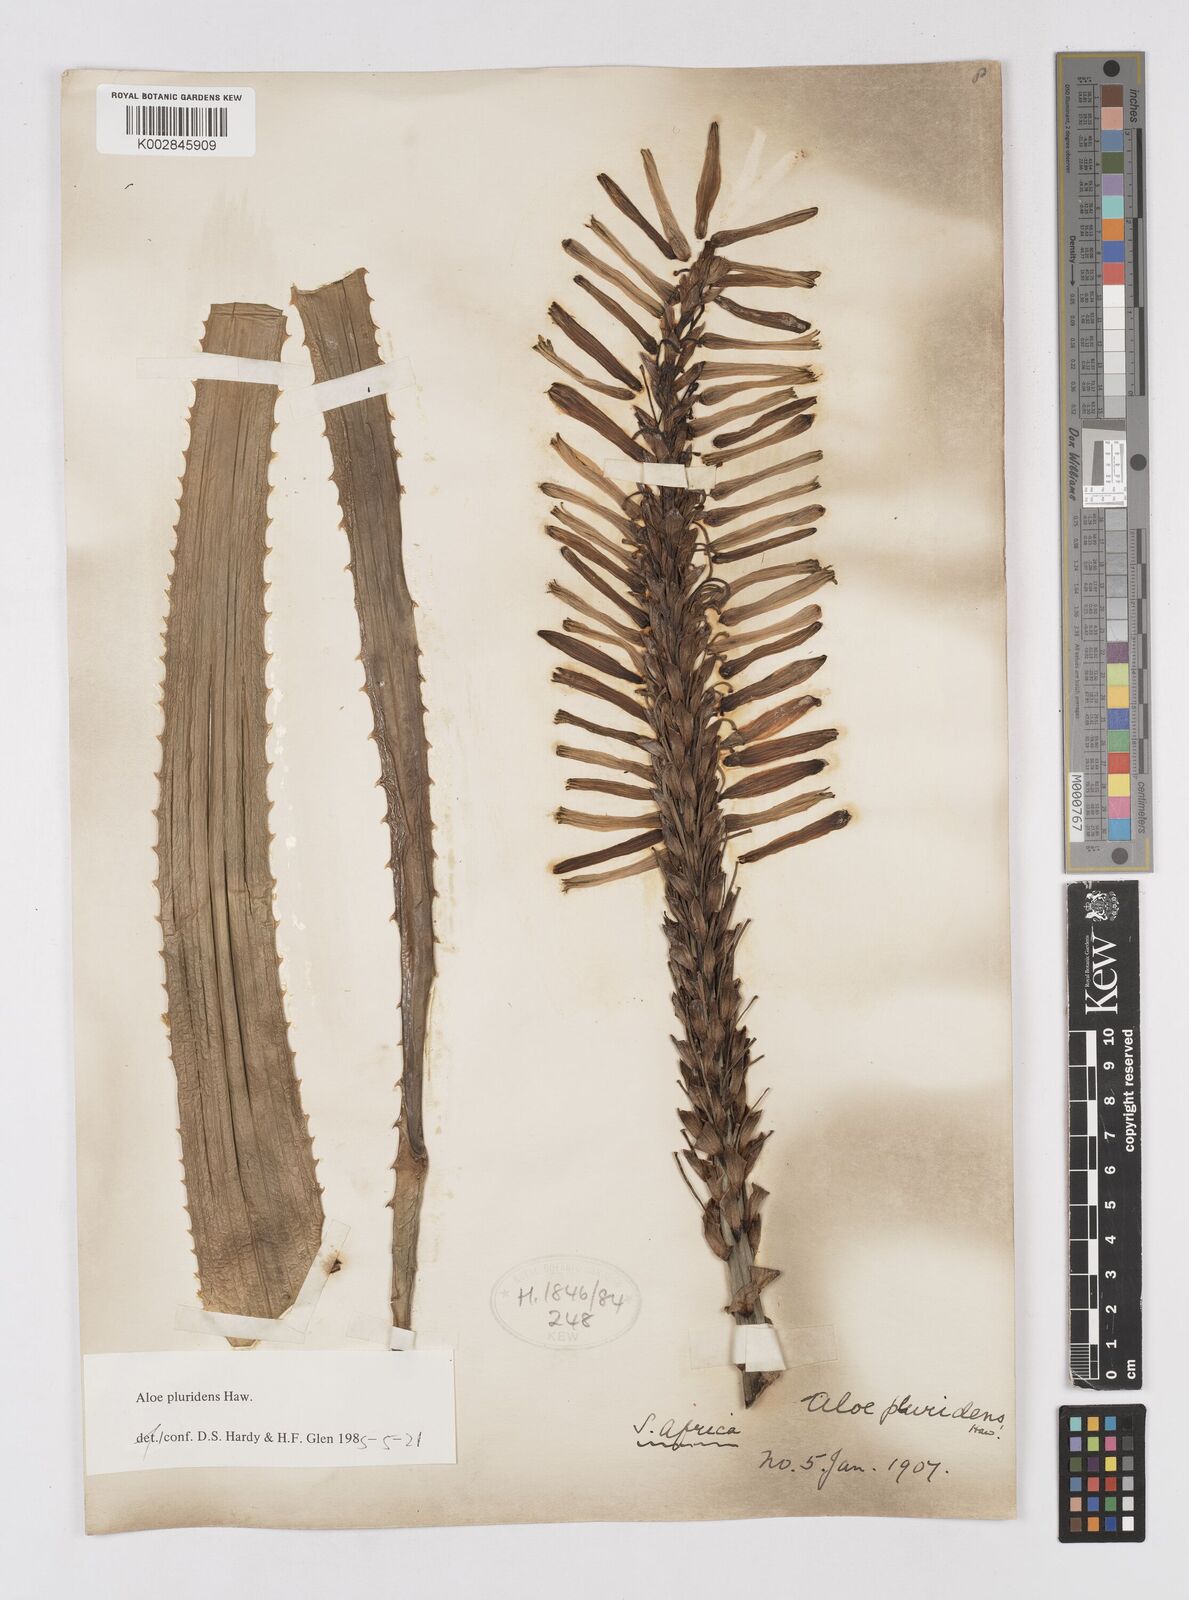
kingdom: Plantae
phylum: Tracheophyta
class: Liliopsida
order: Asparagales
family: Asphodelaceae
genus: Aloe
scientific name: Aloe pluridens
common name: French aloe
